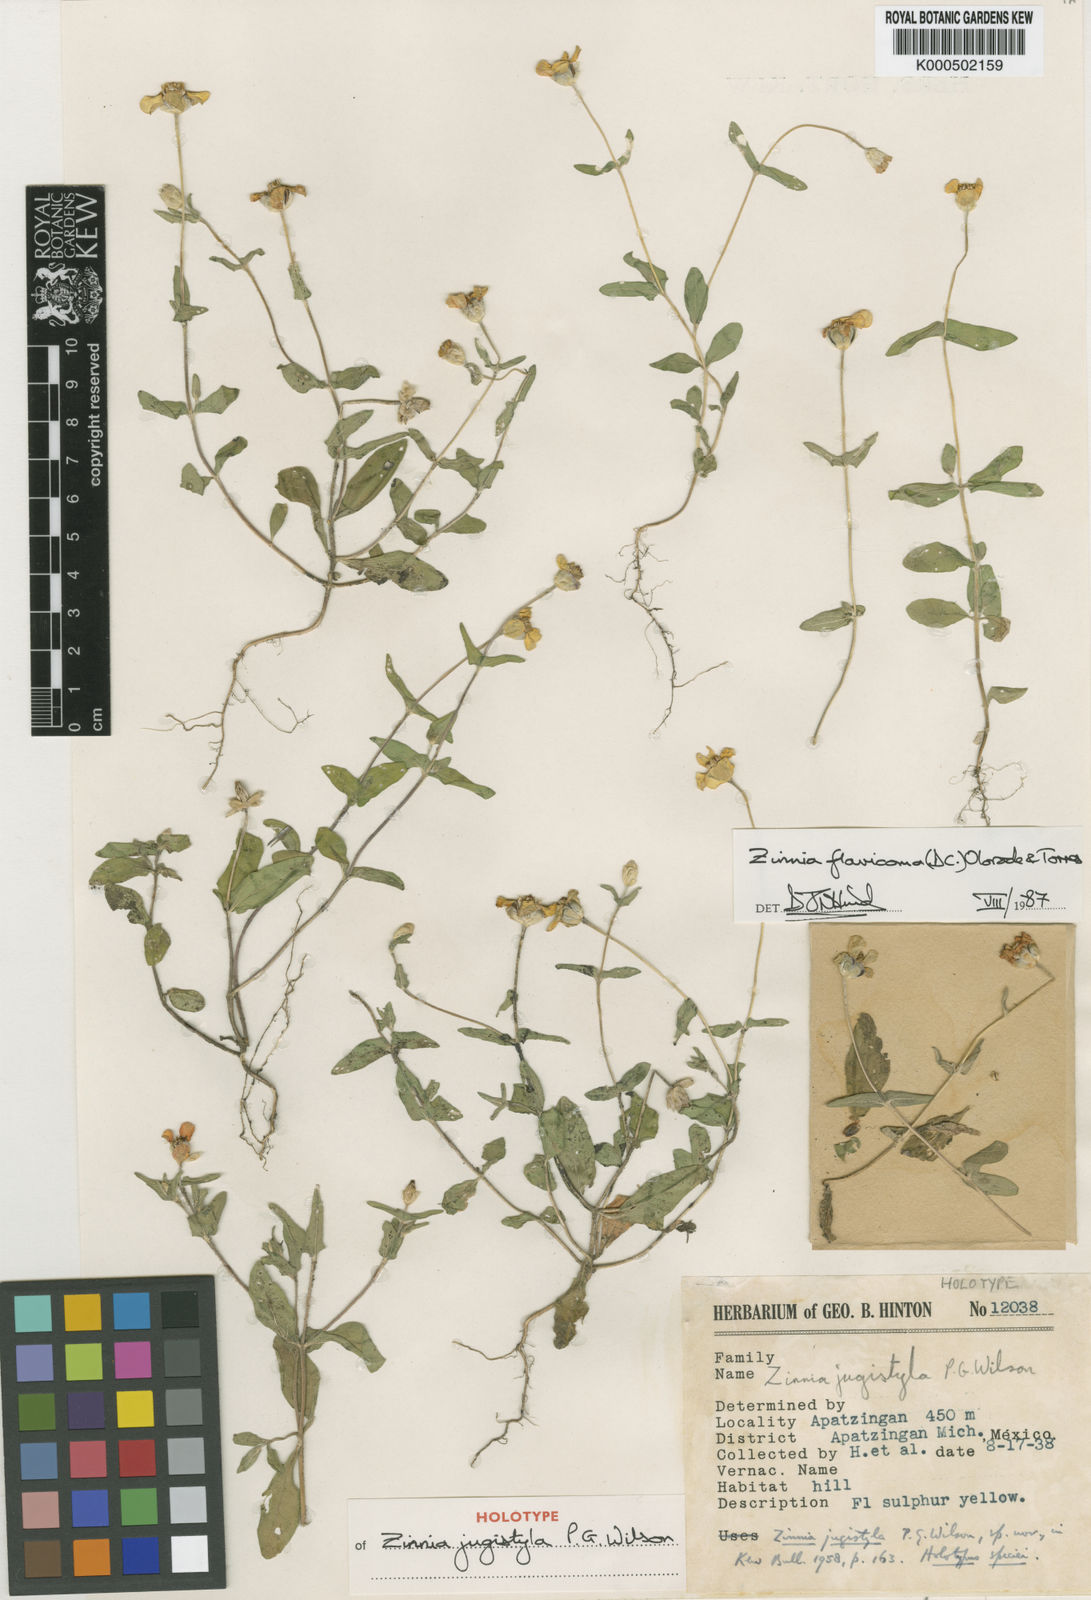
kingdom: Plantae
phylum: Tracheophyta
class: Magnoliopsida
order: Asterales
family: Asteraceae
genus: Zinnia
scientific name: Zinnia flavicoma
